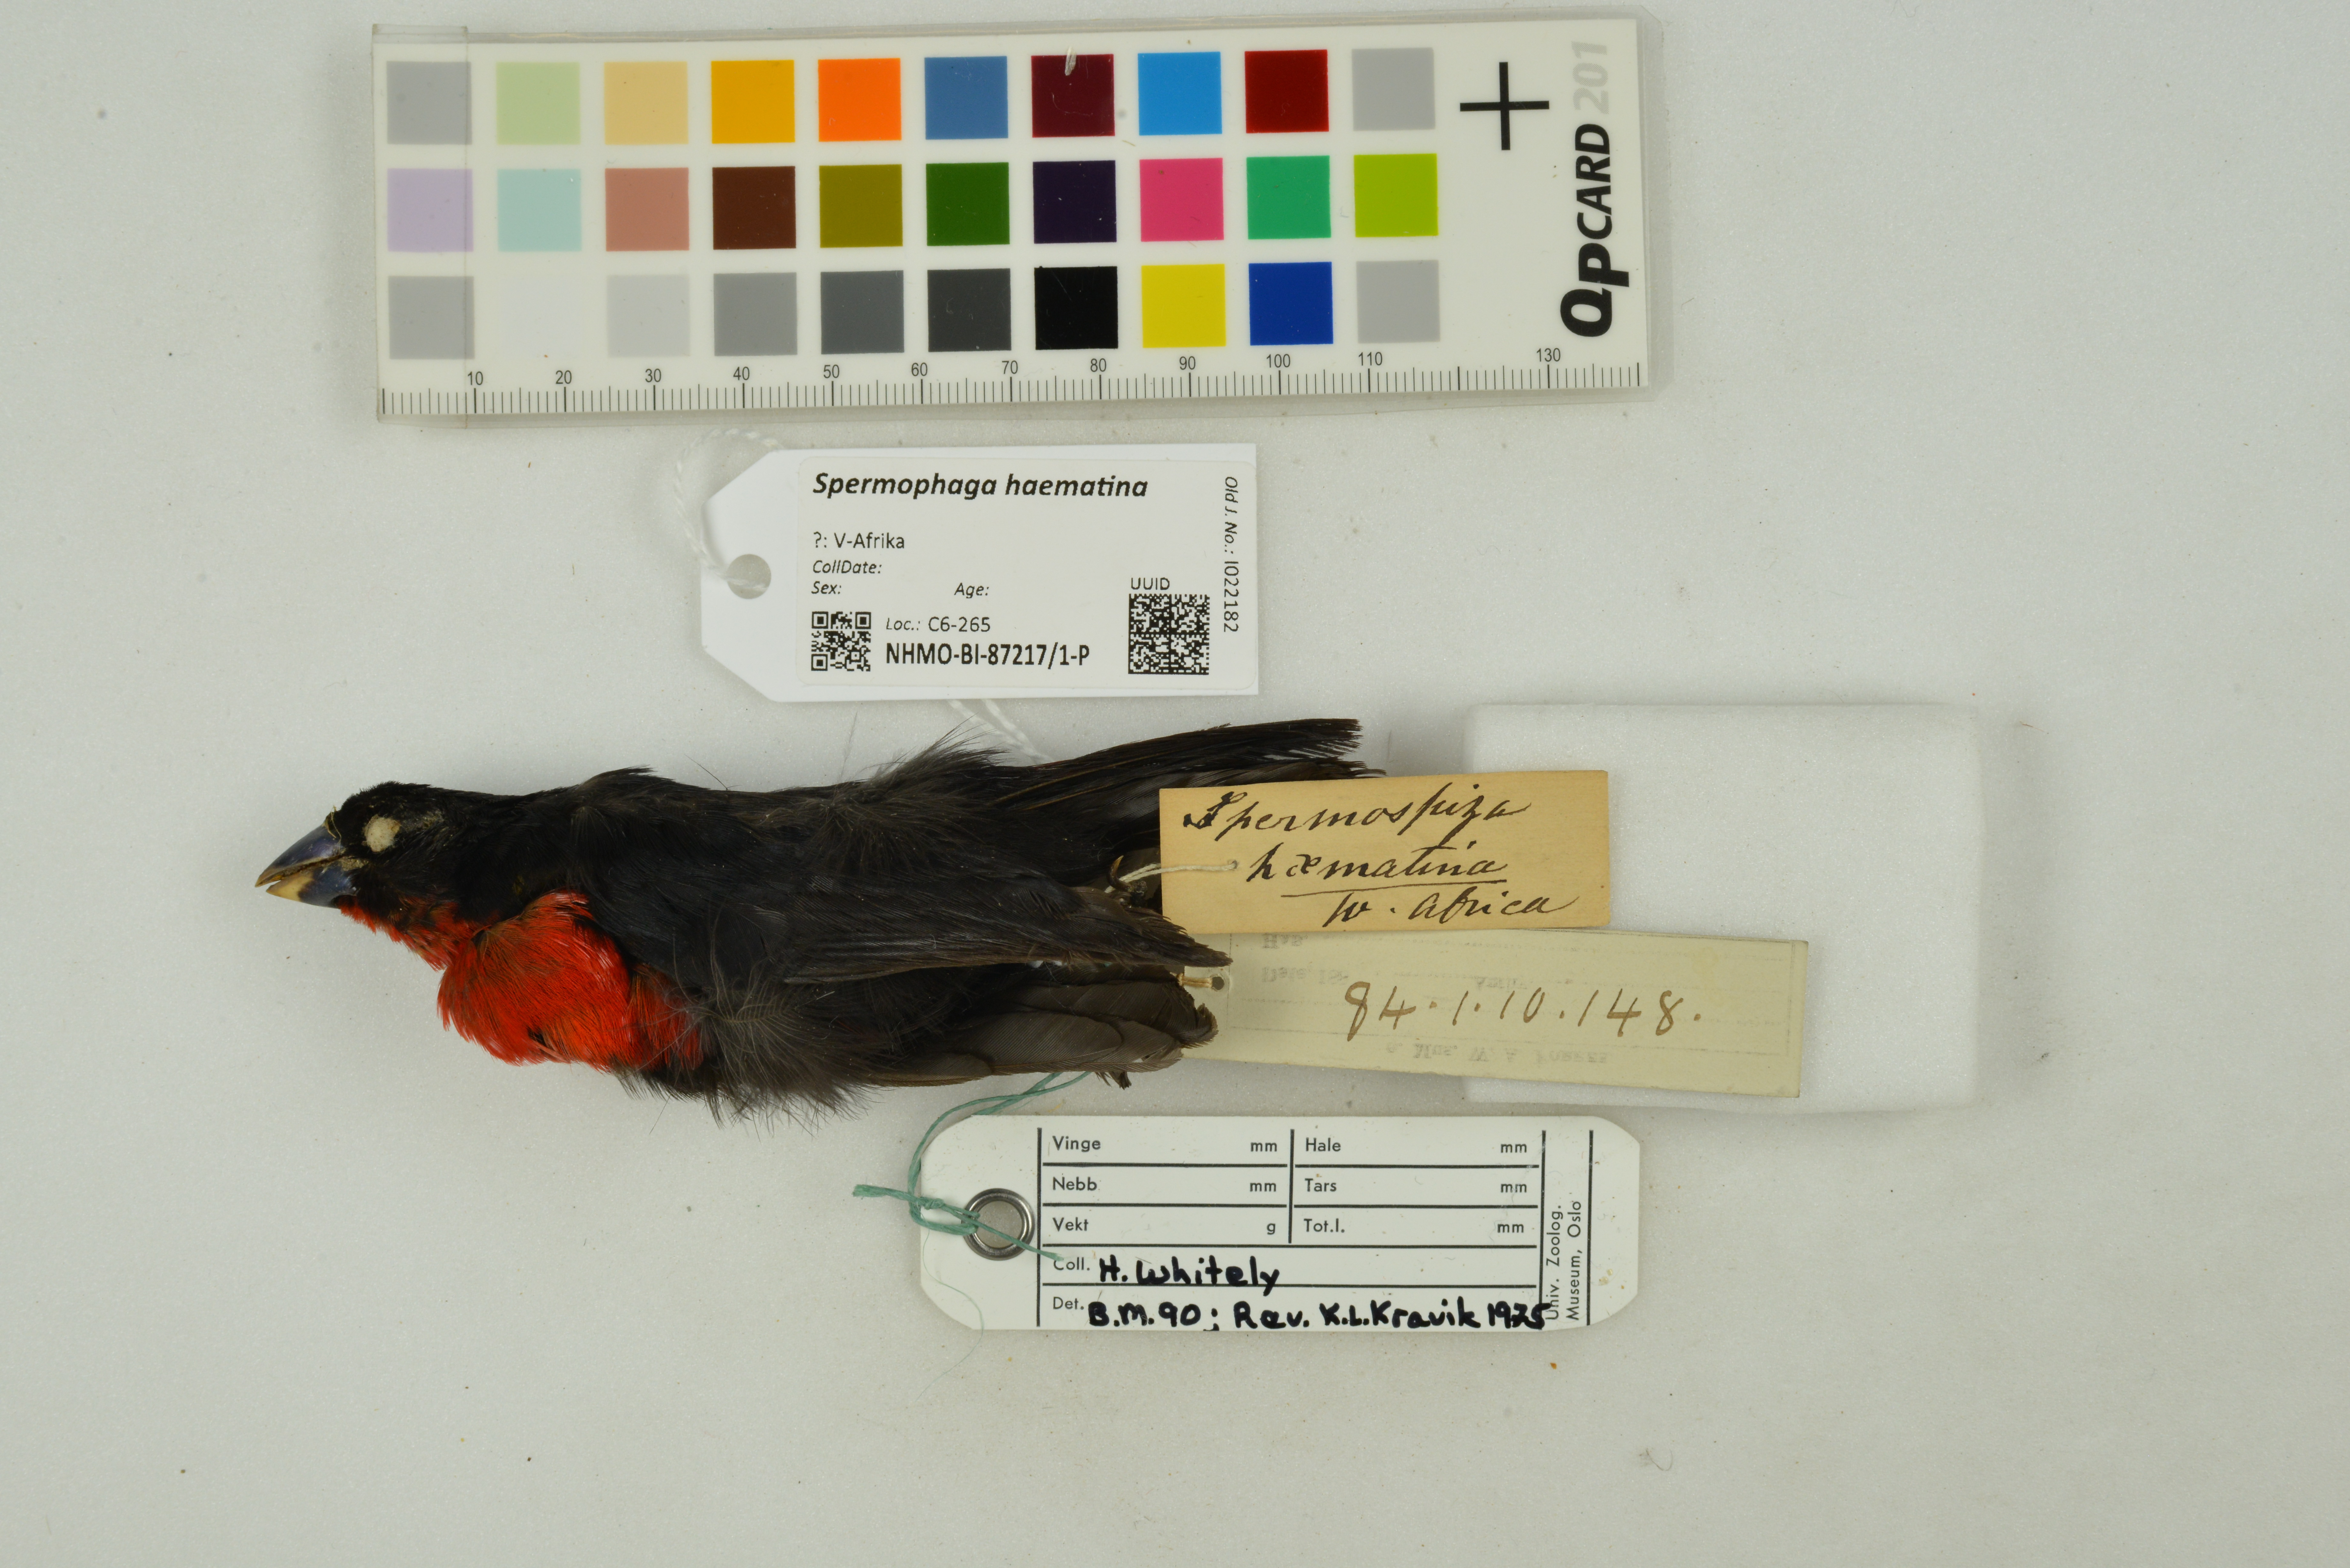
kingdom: Animalia
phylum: Chordata
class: Aves
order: Passeriformes
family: Estrildidae
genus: Spermophaga
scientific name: Spermophaga haematina
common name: Western bluebill
